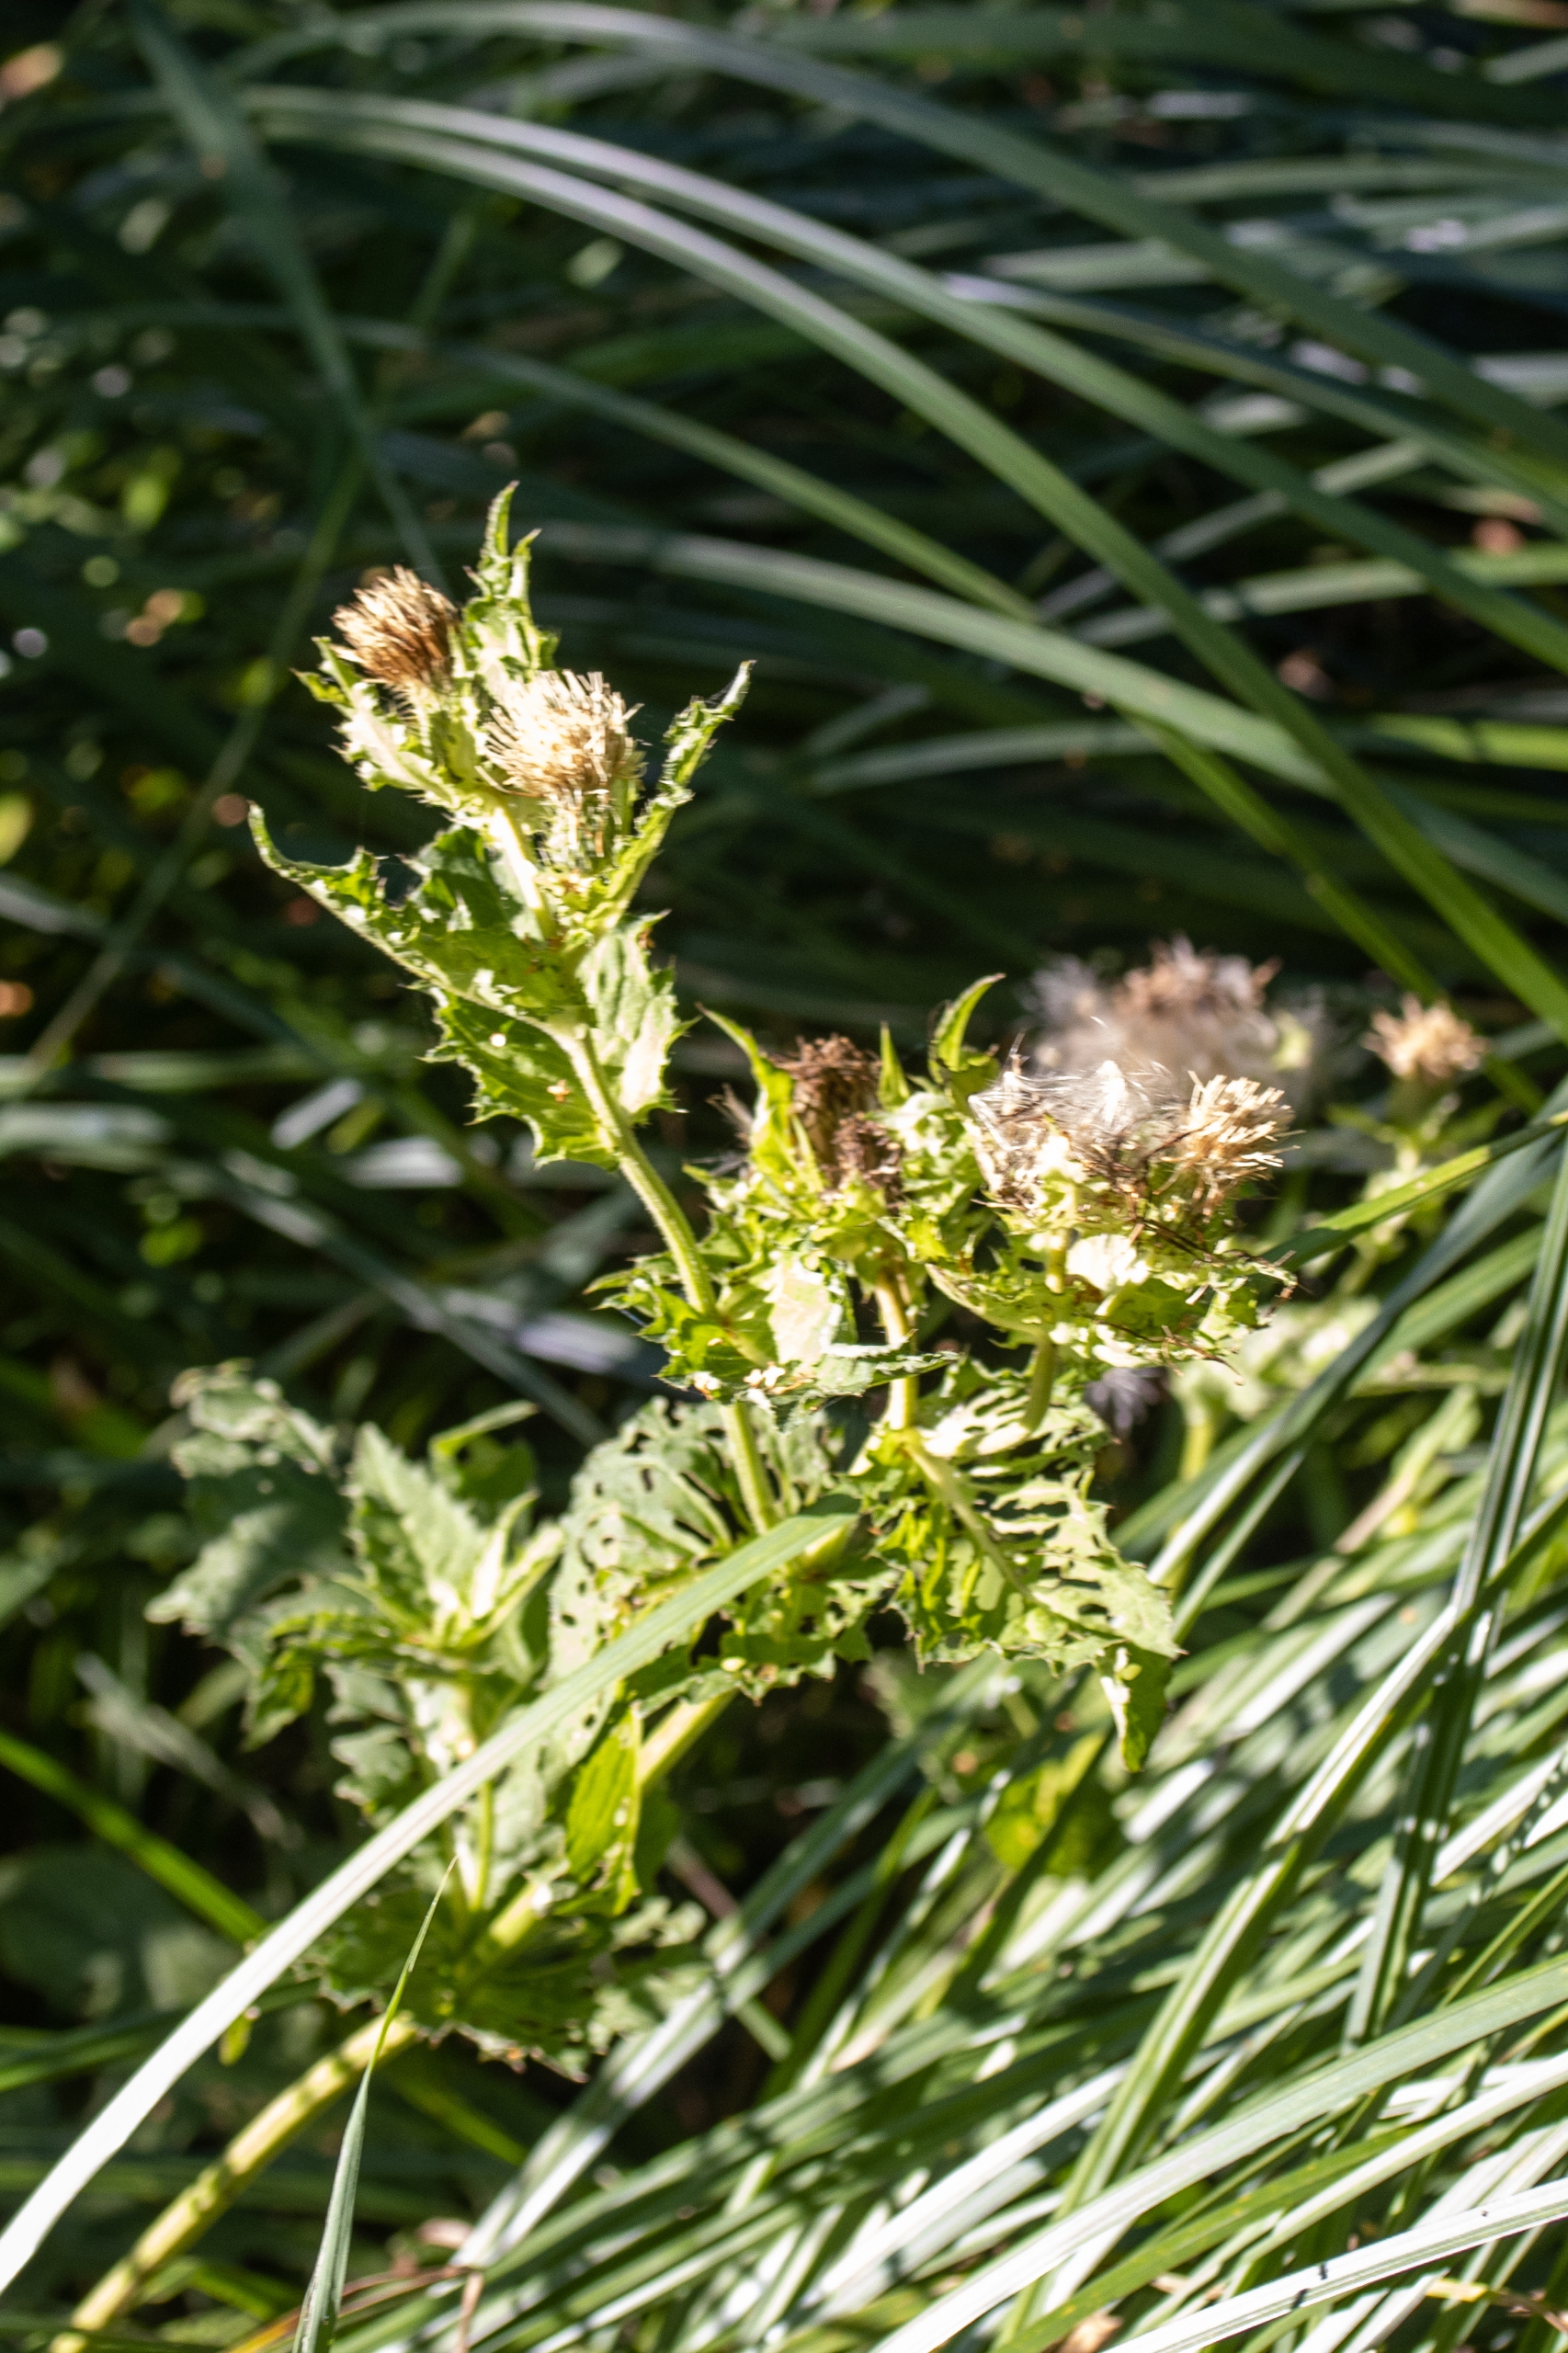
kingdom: Plantae
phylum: Tracheophyta
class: Magnoliopsida
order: Asterales
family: Asteraceae
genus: Cirsium
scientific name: Cirsium oleraceum
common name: Kål-tidsel
